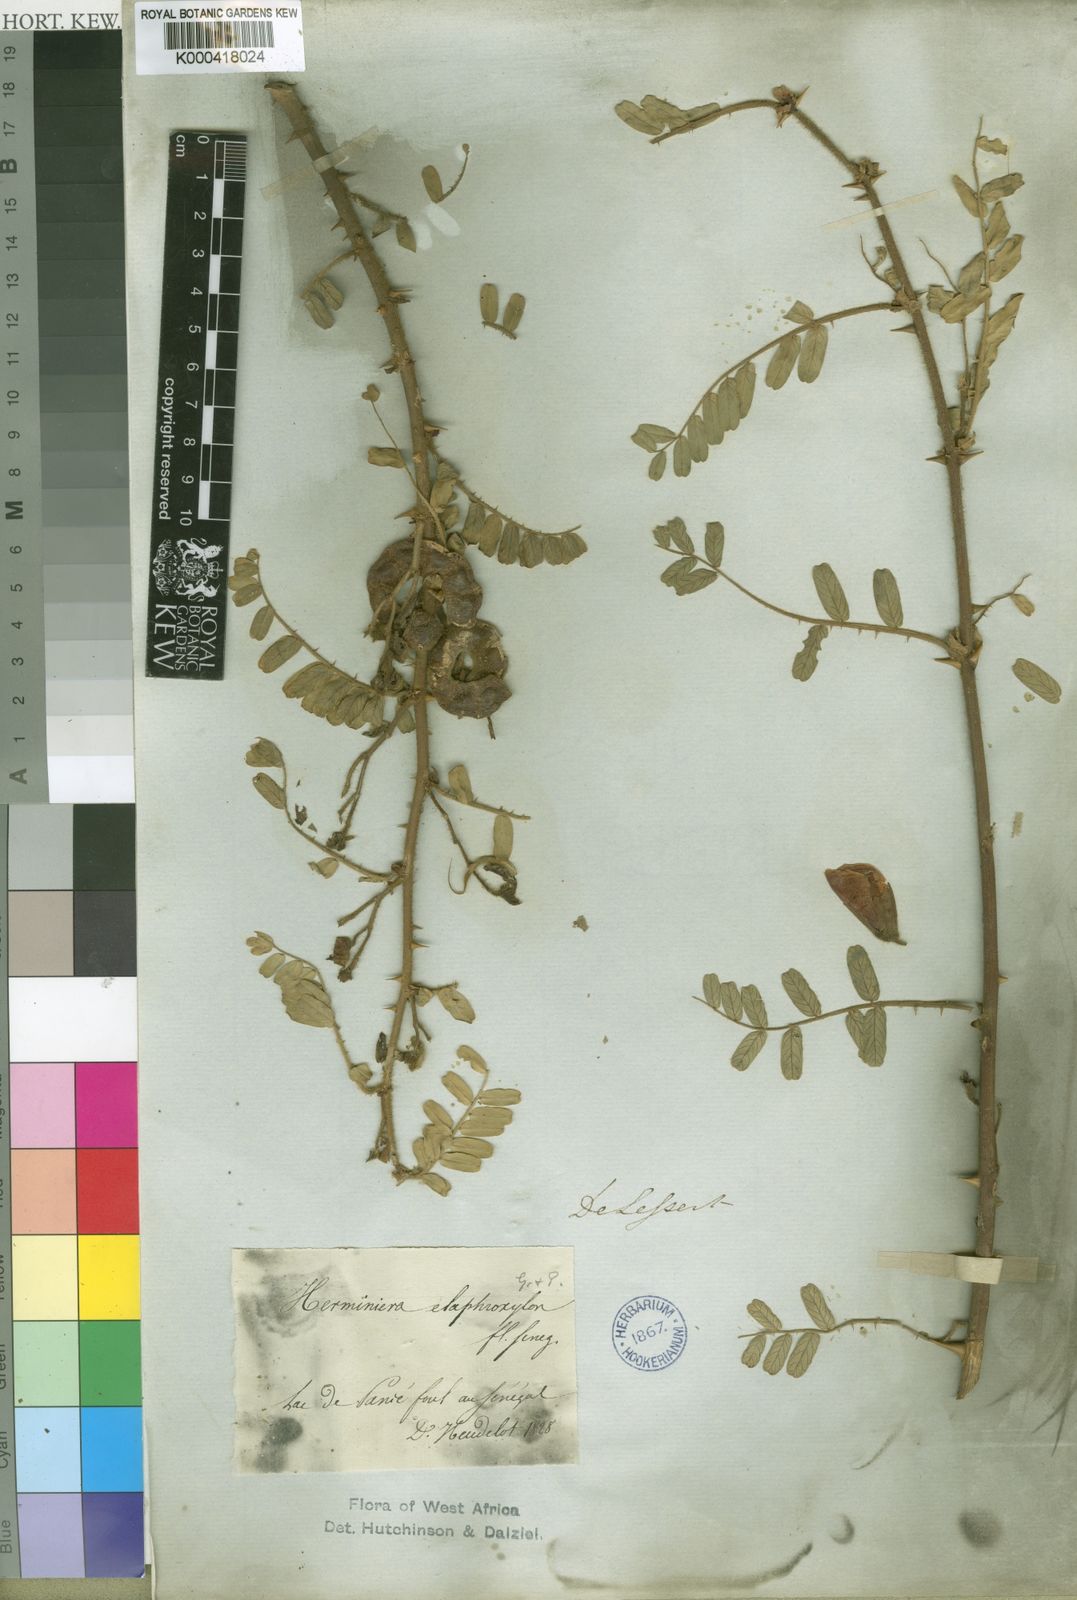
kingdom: Plantae
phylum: Tracheophyta
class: Magnoliopsida
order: Fabales
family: Fabaceae
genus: Aeschynomene
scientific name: Aeschynomene
